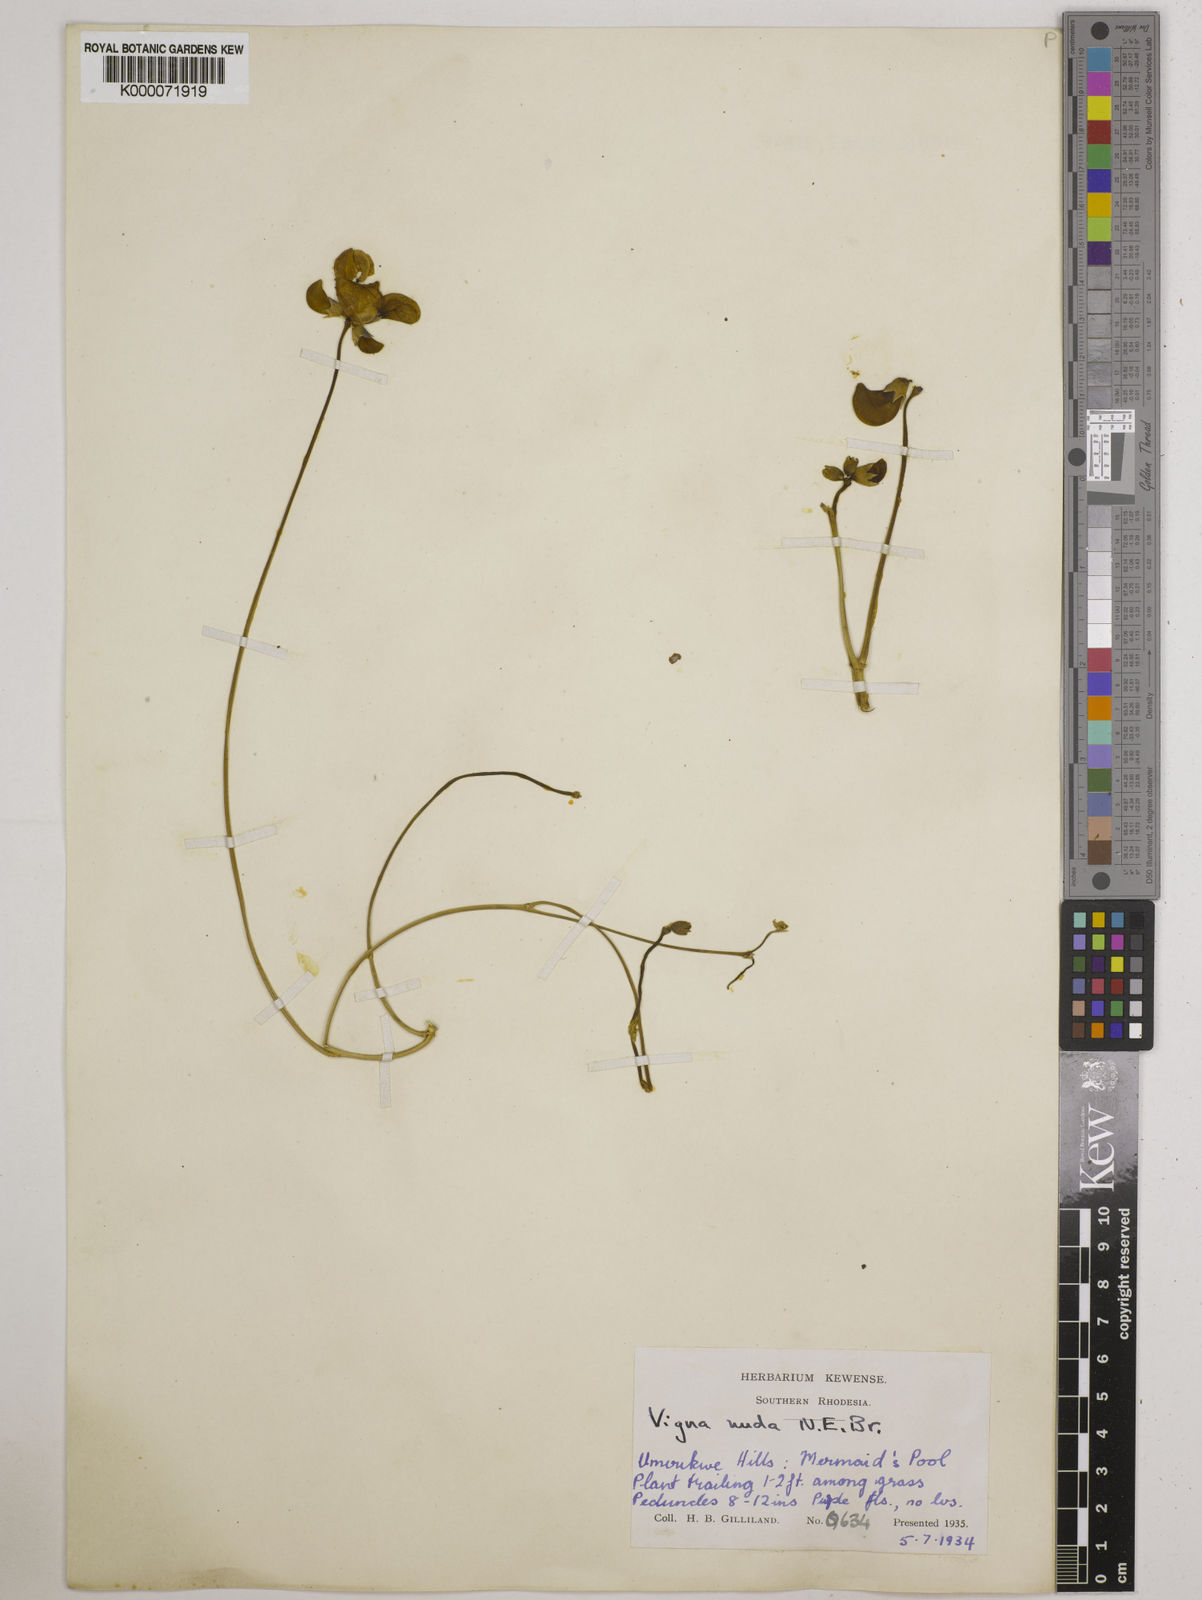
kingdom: Plantae
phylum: Tracheophyta
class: Magnoliopsida
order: Fabales
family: Fabaceae
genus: Vigna
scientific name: Vigna antunesii
